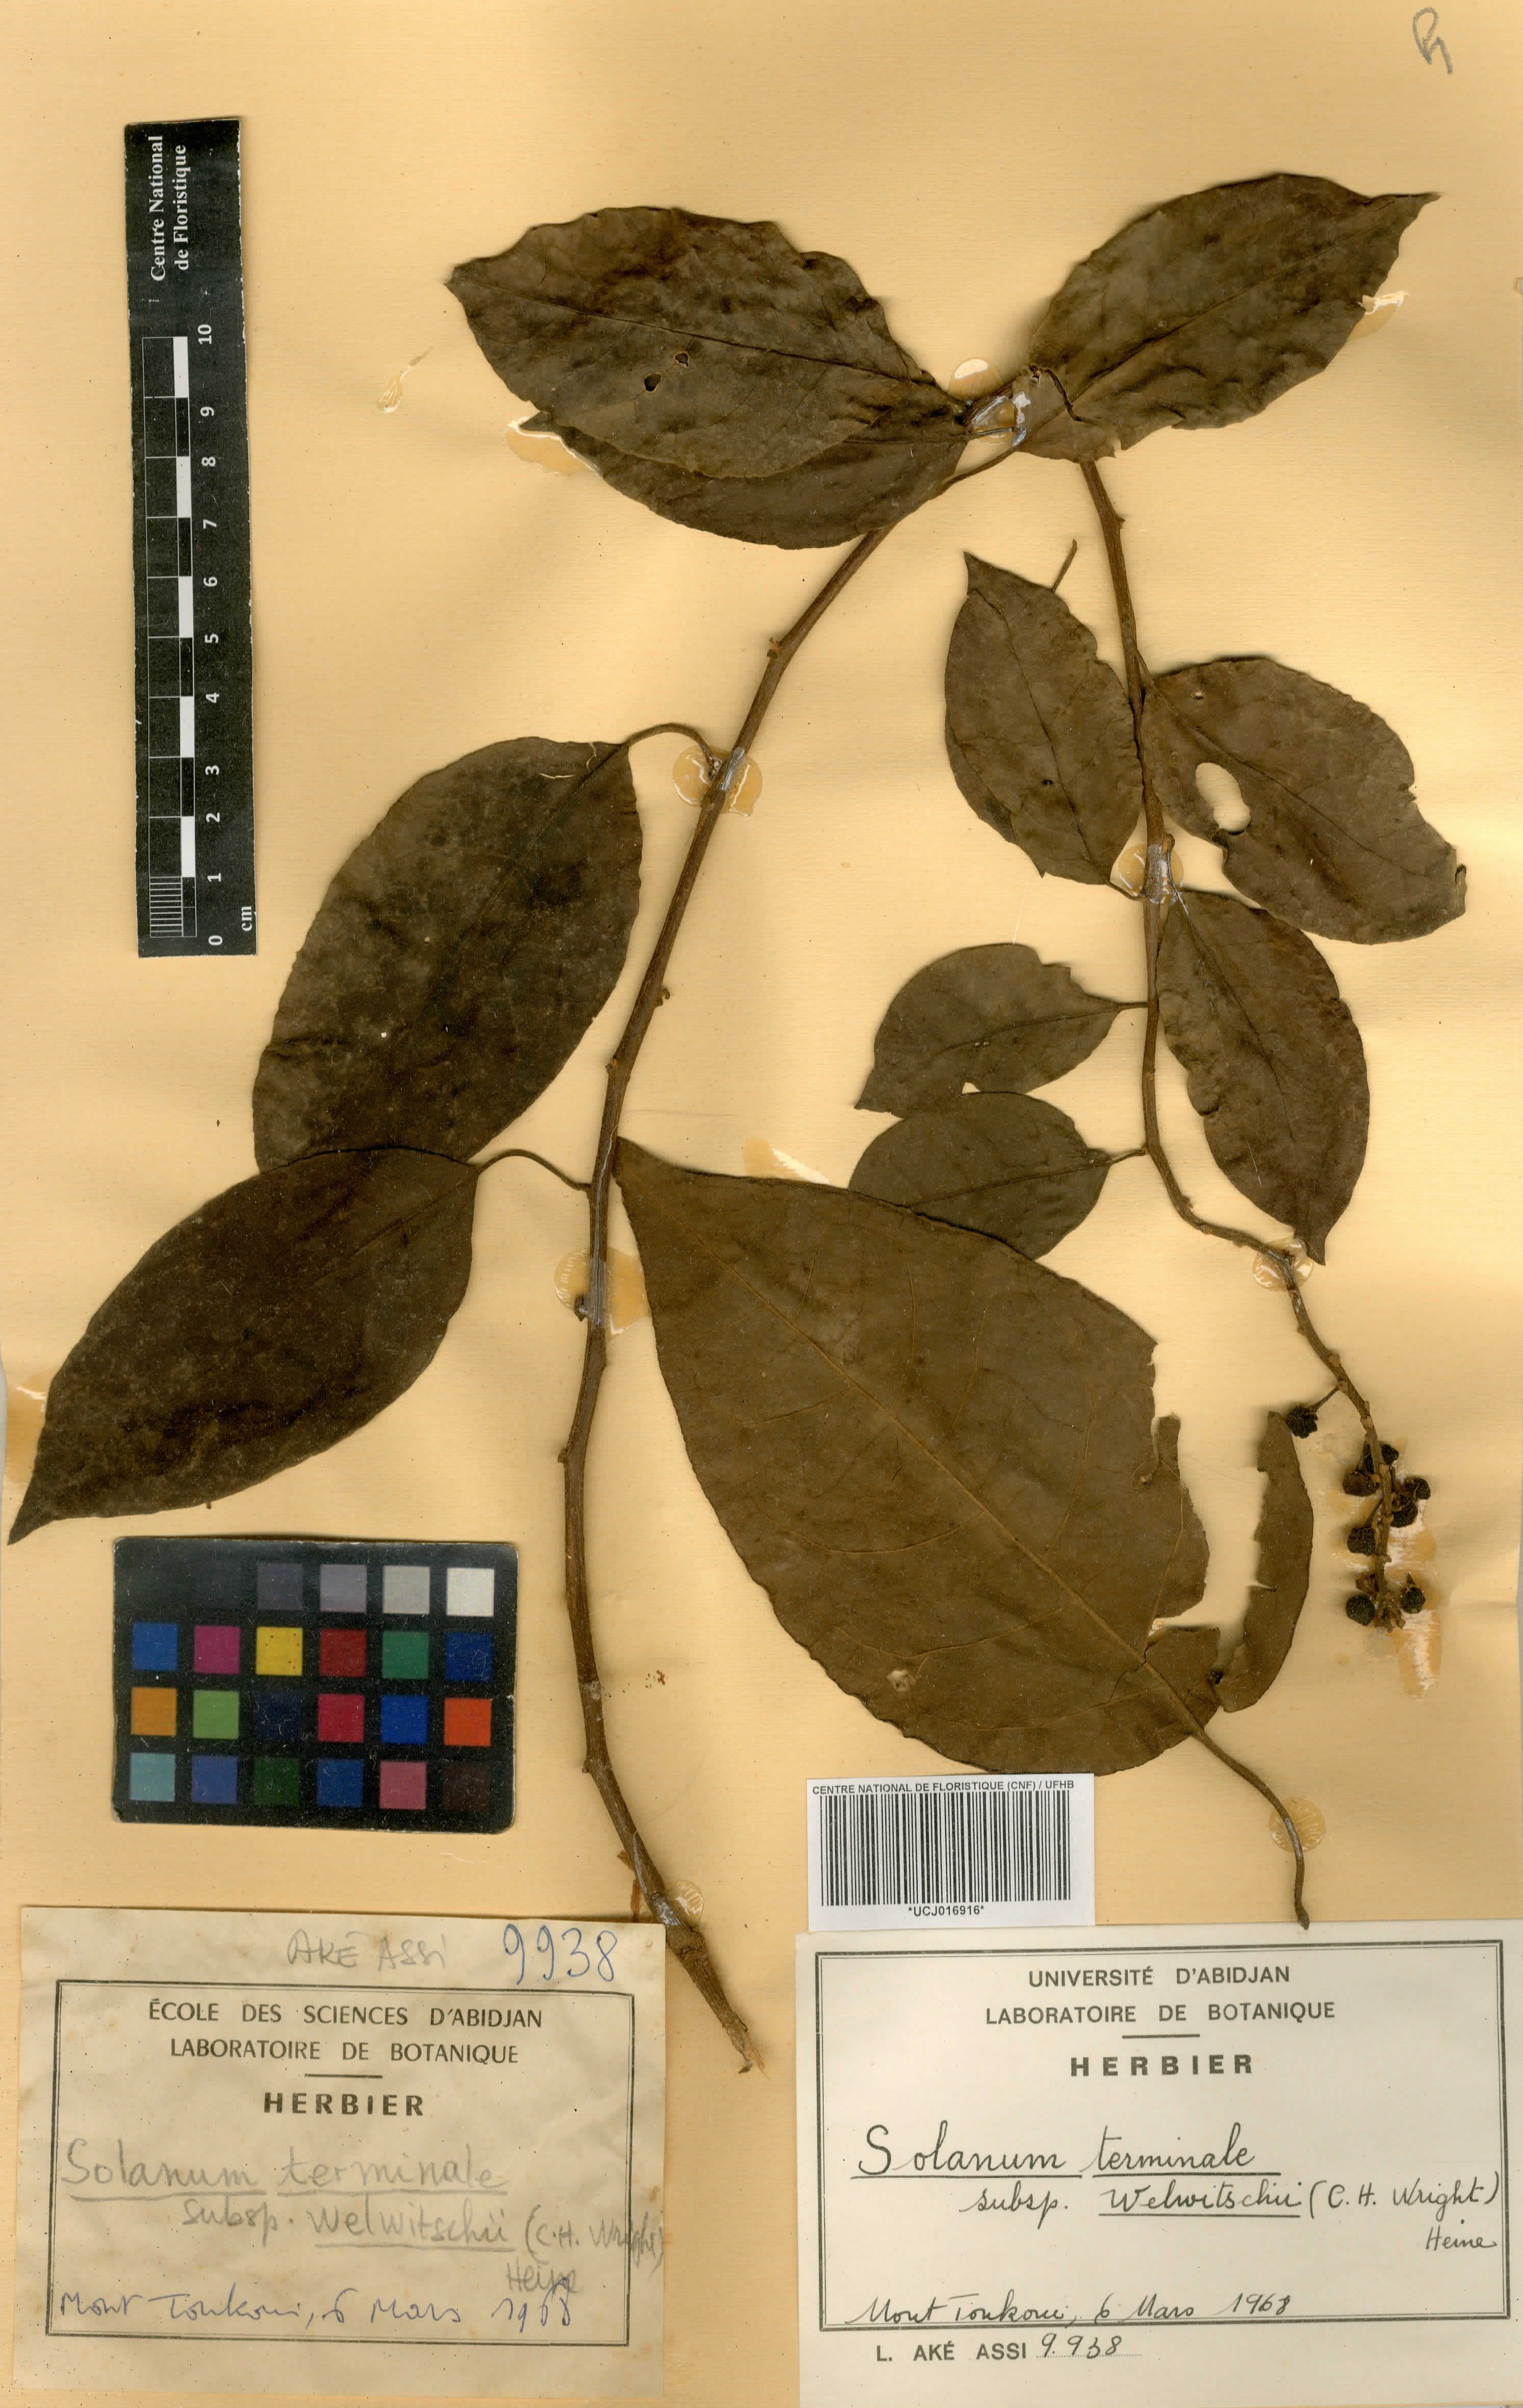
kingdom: Plantae
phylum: Tracheophyta
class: Magnoliopsida
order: Solanales
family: Solanaceae
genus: Solanum
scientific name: Solanum terminale
